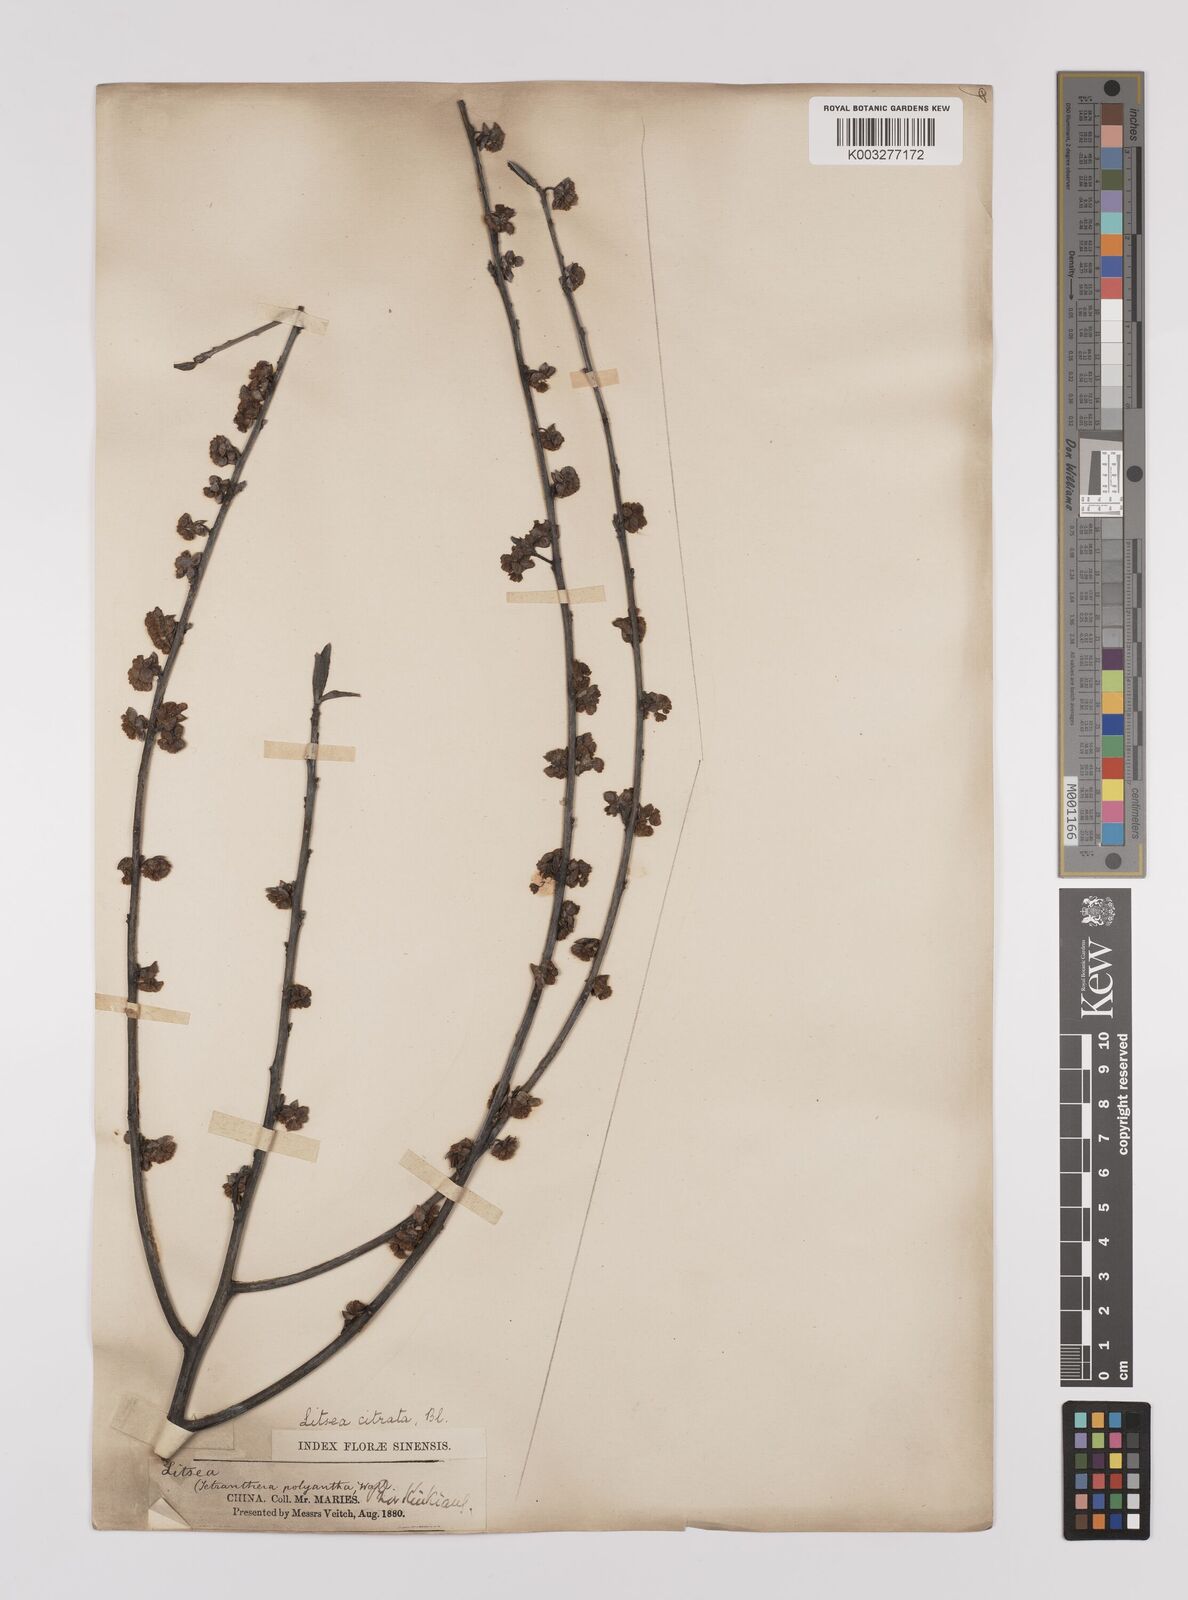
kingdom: Plantae
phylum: Tracheophyta
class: Magnoliopsida
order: Laurales
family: Lauraceae
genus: Litsea
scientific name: Litsea cubeba
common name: Mountain-pepper
